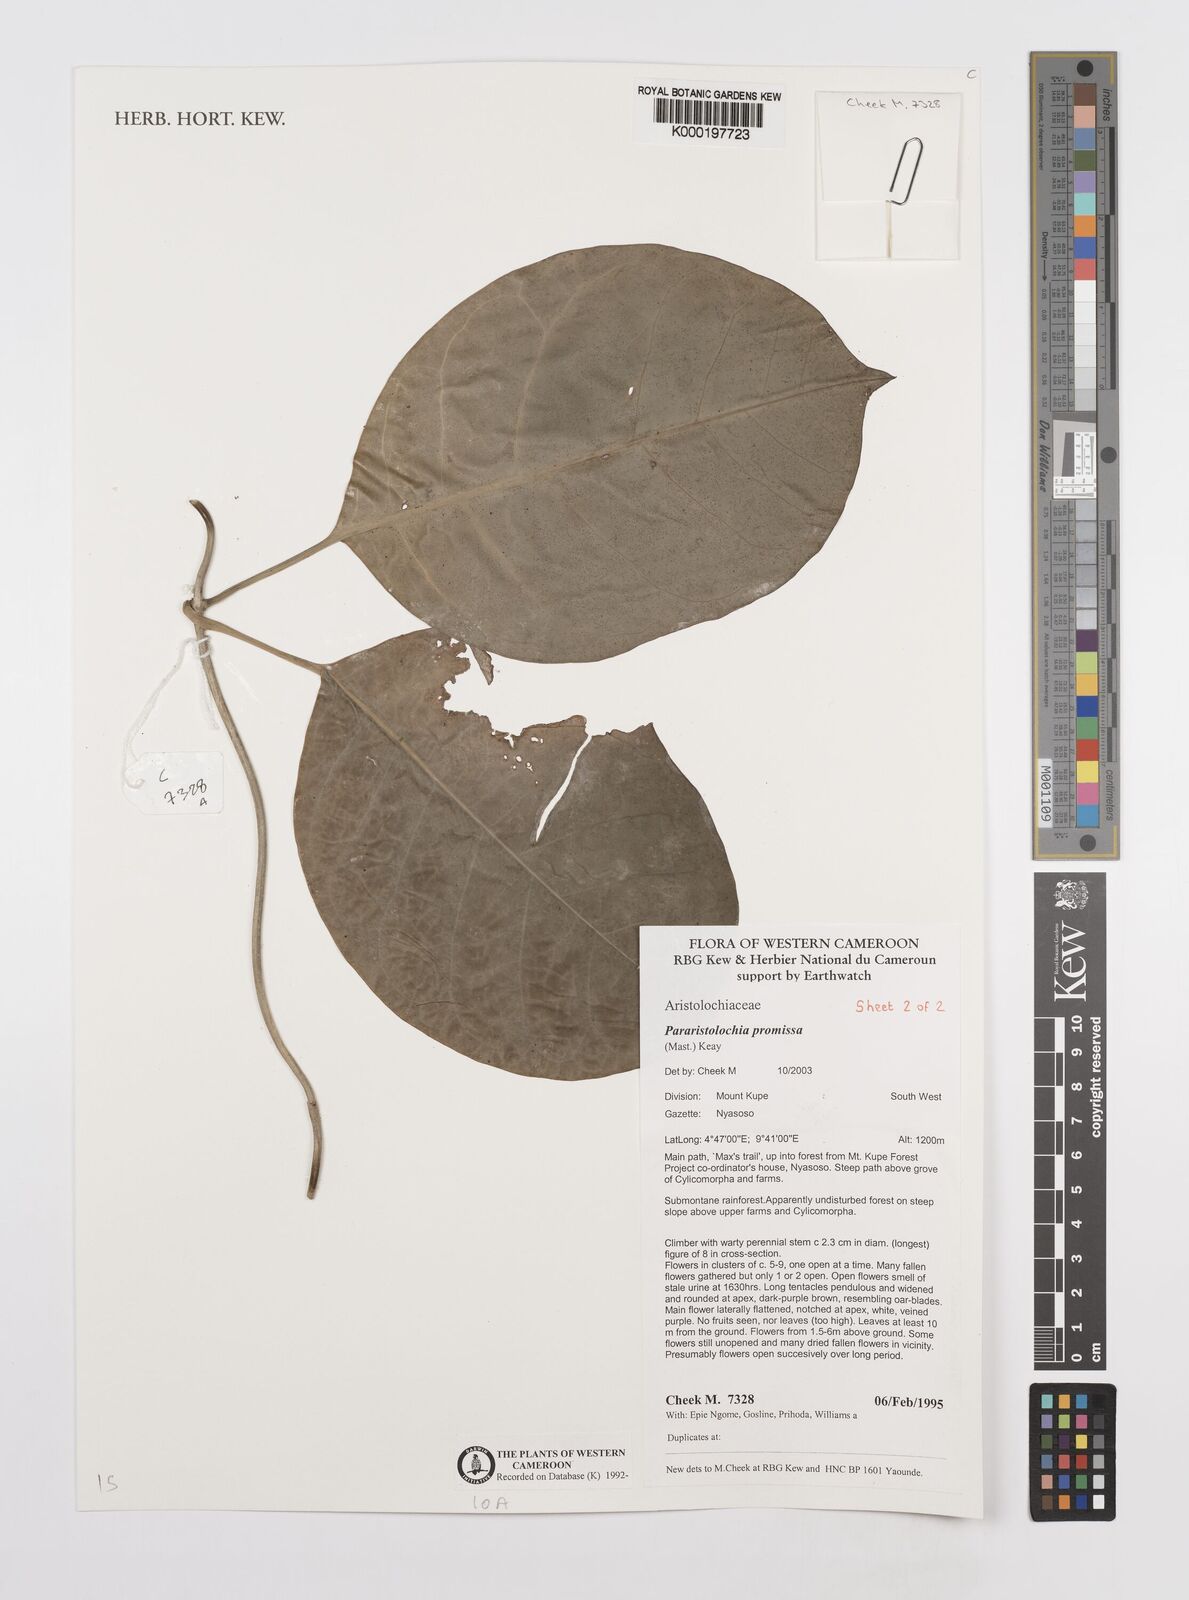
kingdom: Plantae
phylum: Tracheophyta
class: Magnoliopsida
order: Piperales
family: Aristolochiaceae
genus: Aristolochia
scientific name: Aristolochia promissa
